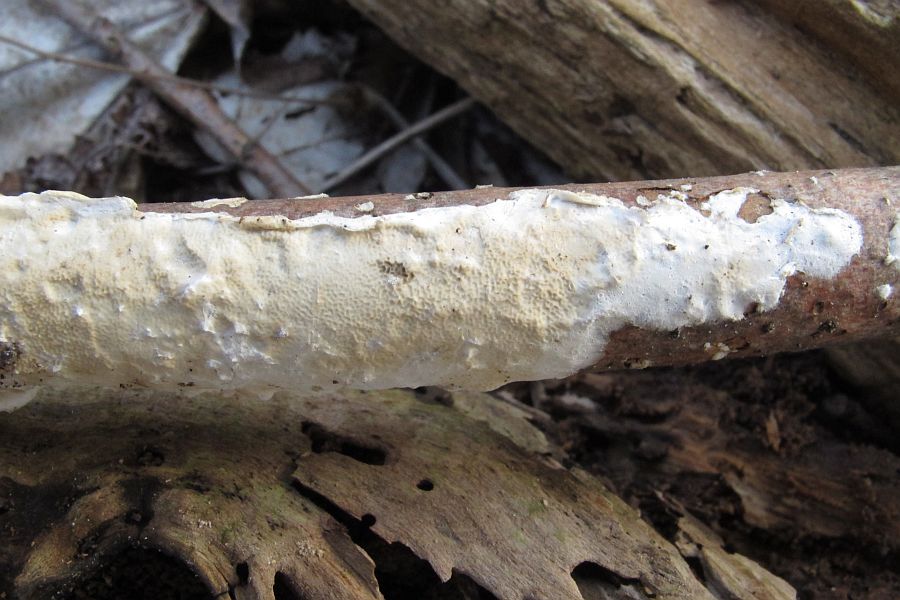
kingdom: Fungi
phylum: Basidiomycota
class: Agaricomycetes
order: Polyporales
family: Irpicaceae
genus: Byssomerulius
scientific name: Byssomerulius corium
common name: læder-åresvamp
